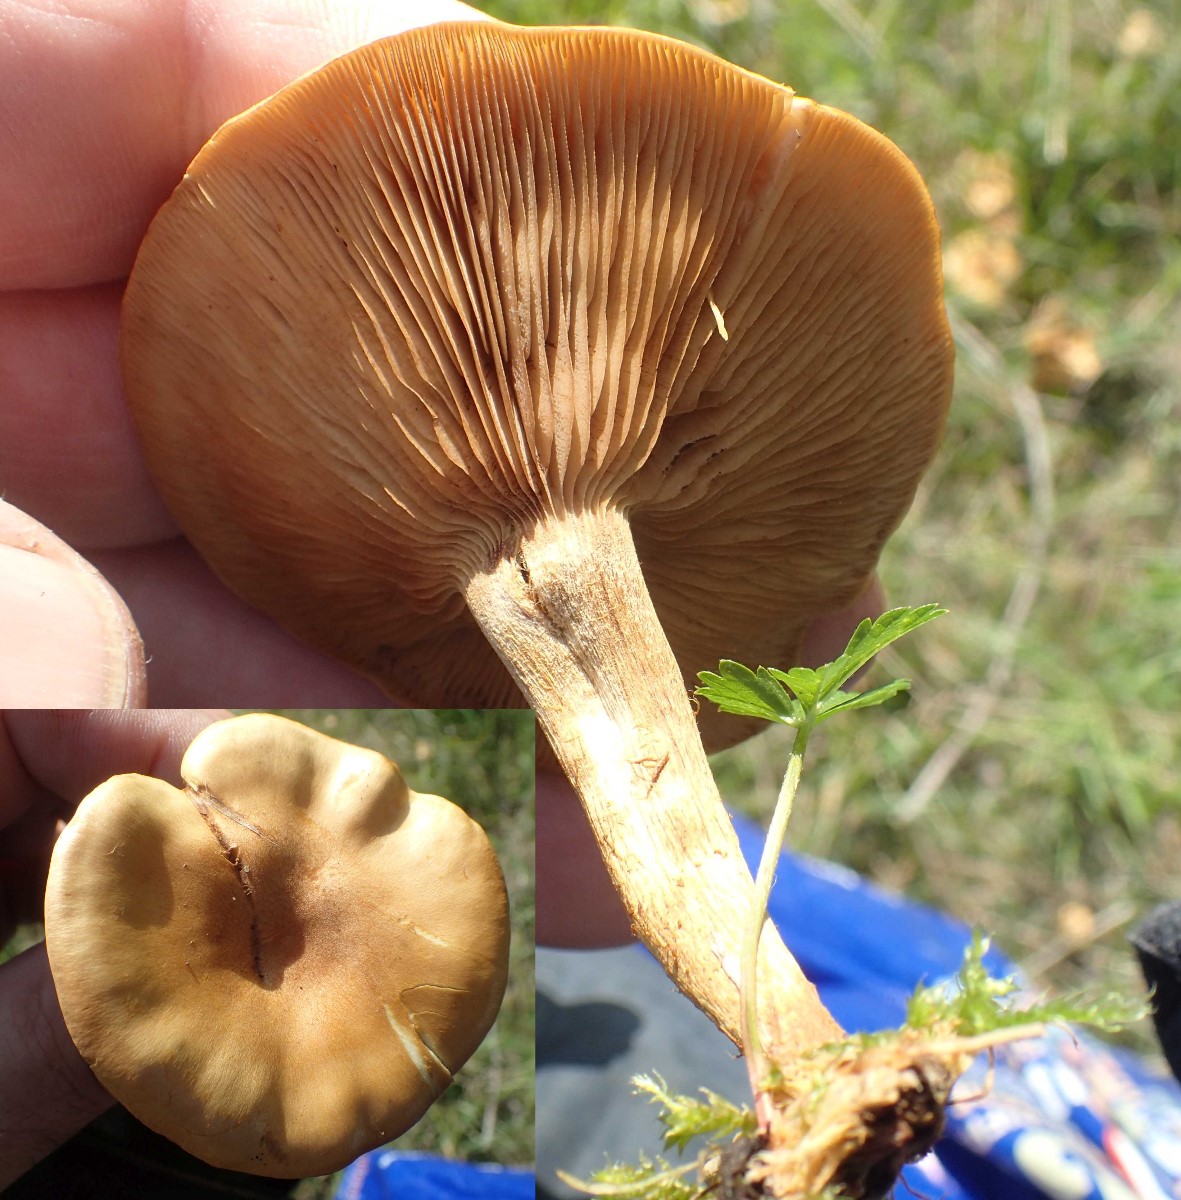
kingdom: Fungi
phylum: Basidiomycota
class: Agaricomycetes
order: Agaricales
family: Cortinariaceae
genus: Cortinarius
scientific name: Cortinarius
